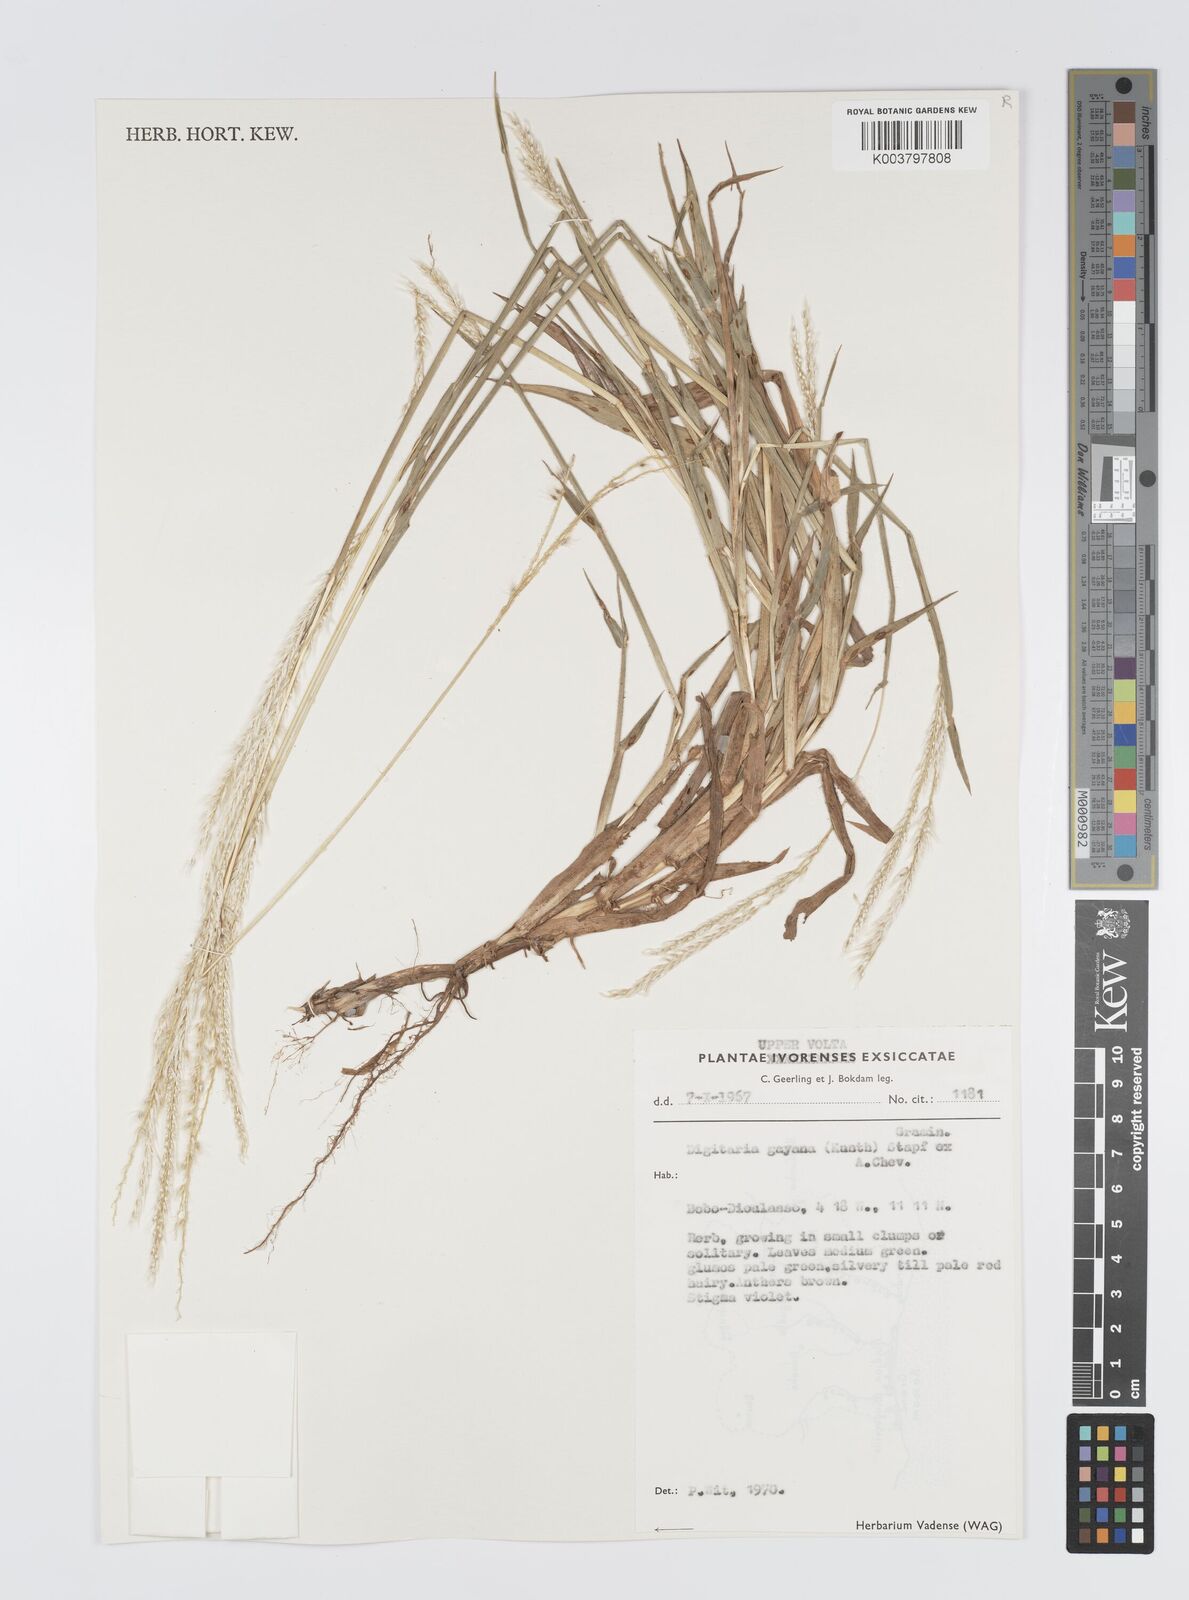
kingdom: Plantae
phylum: Tracheophyta
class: Liliopsida
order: Poales
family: Poaceae
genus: Digitaria
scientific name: Digitaria gayana
